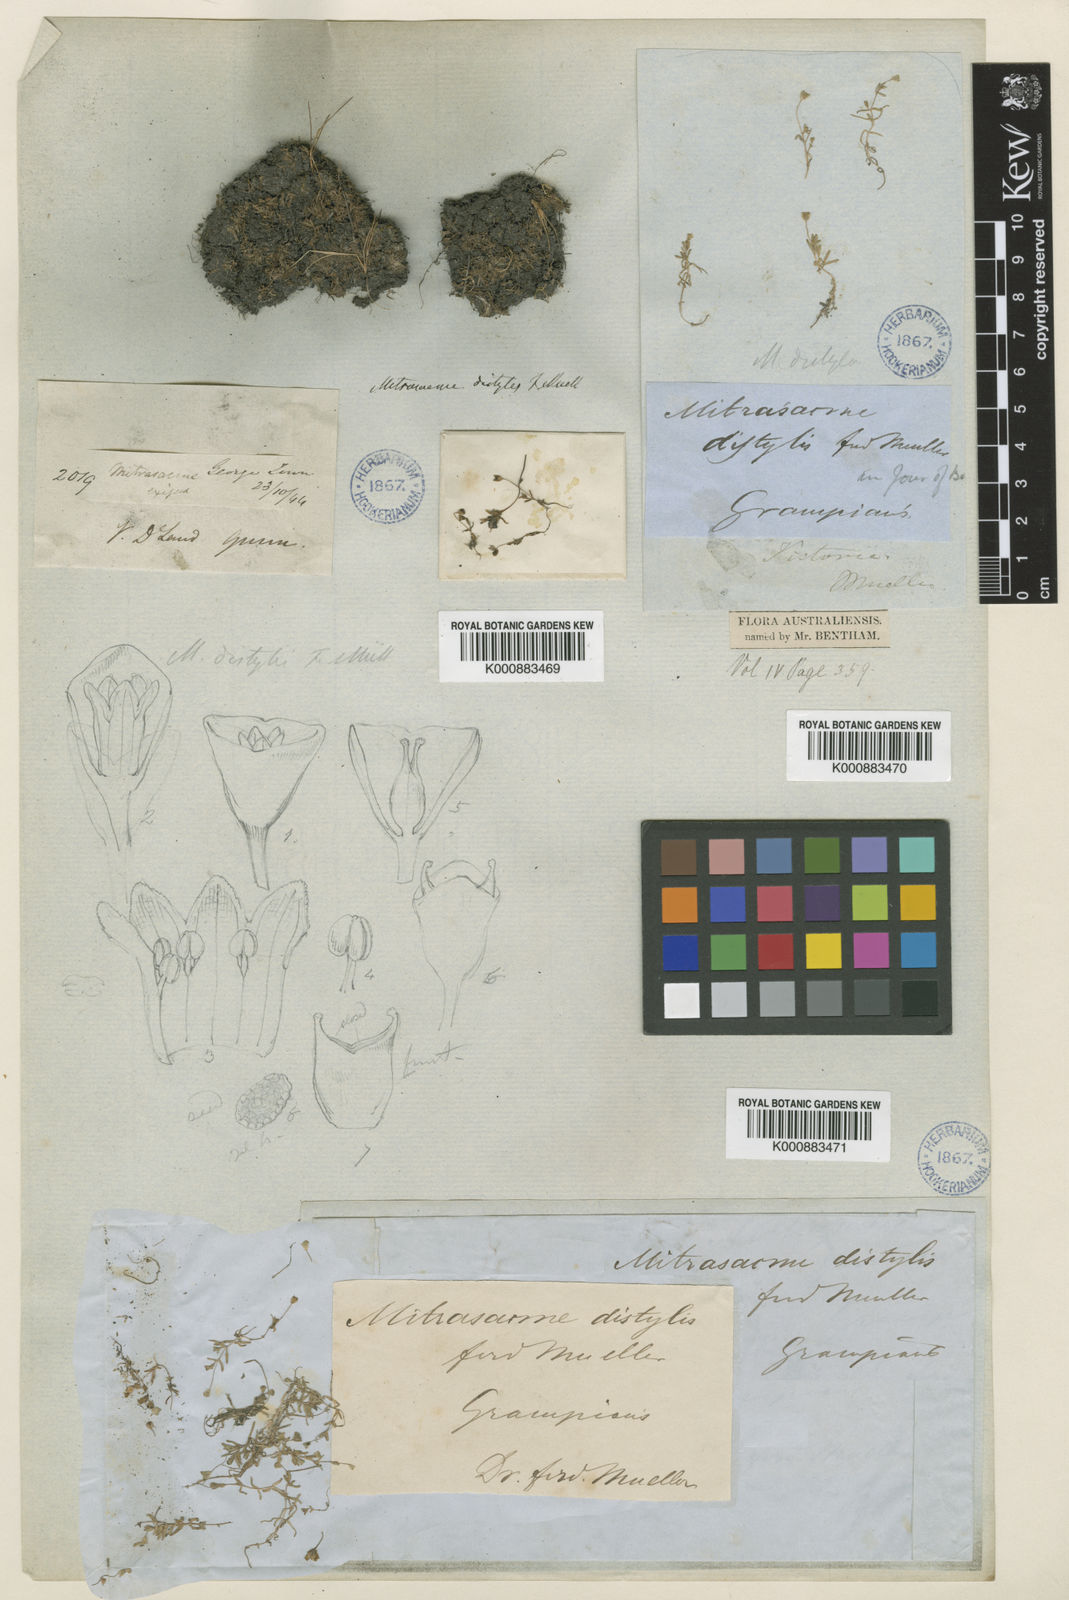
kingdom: Plantae
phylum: Tracheophyta
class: Magnoliopsida
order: Gentianales
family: Loganiaceae
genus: Phyllangium
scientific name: Phyllangium distylis
